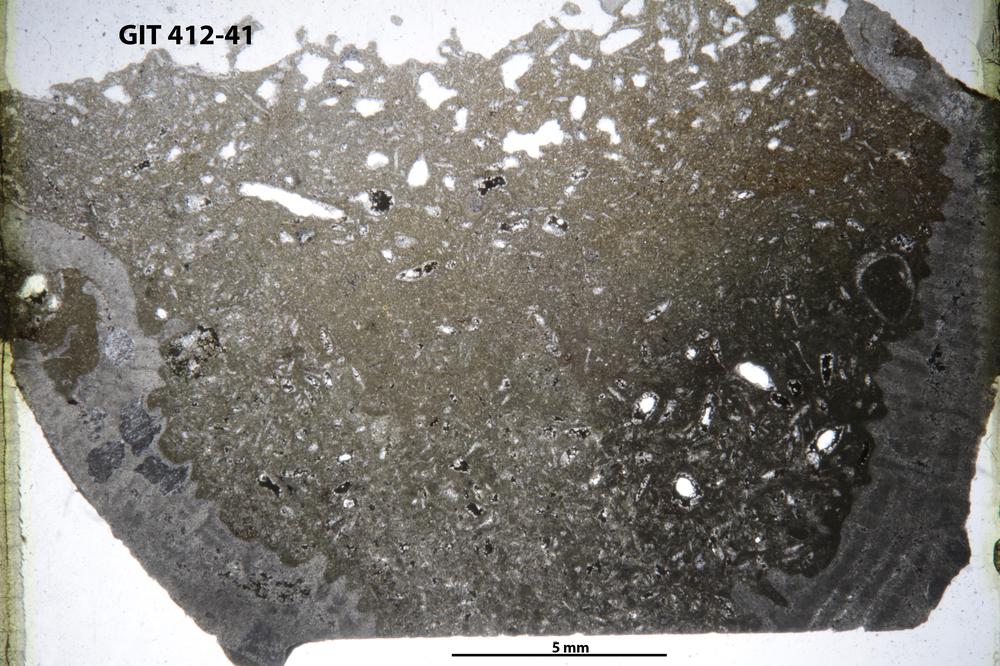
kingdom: Animalia
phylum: Cnidaria
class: Anthozoa
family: Streptelasmatidae
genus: Streptelasma
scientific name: Streptelasma
